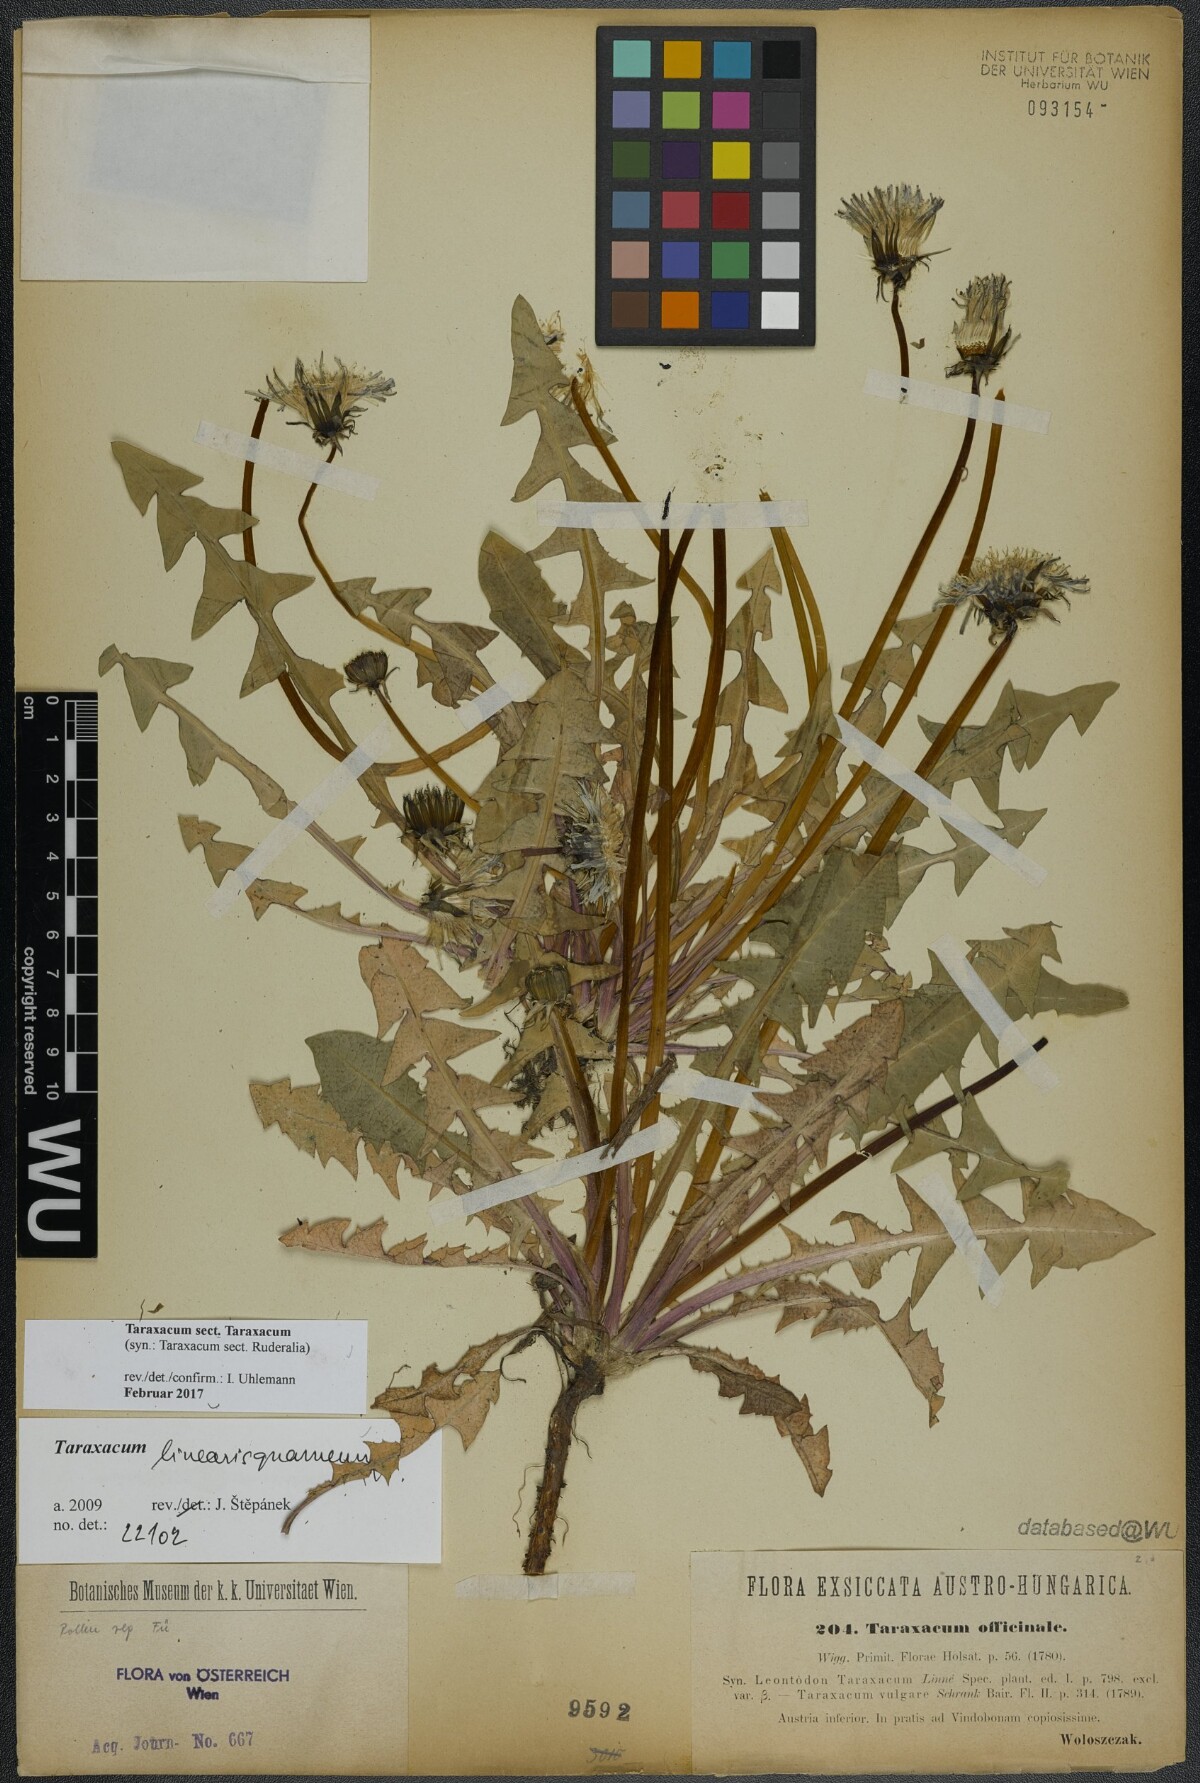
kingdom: Plantae
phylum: Tracheophyta
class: Magnoliopsida
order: Asterales
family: Asteraceae
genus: Taraxacum
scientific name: Taraxacum
